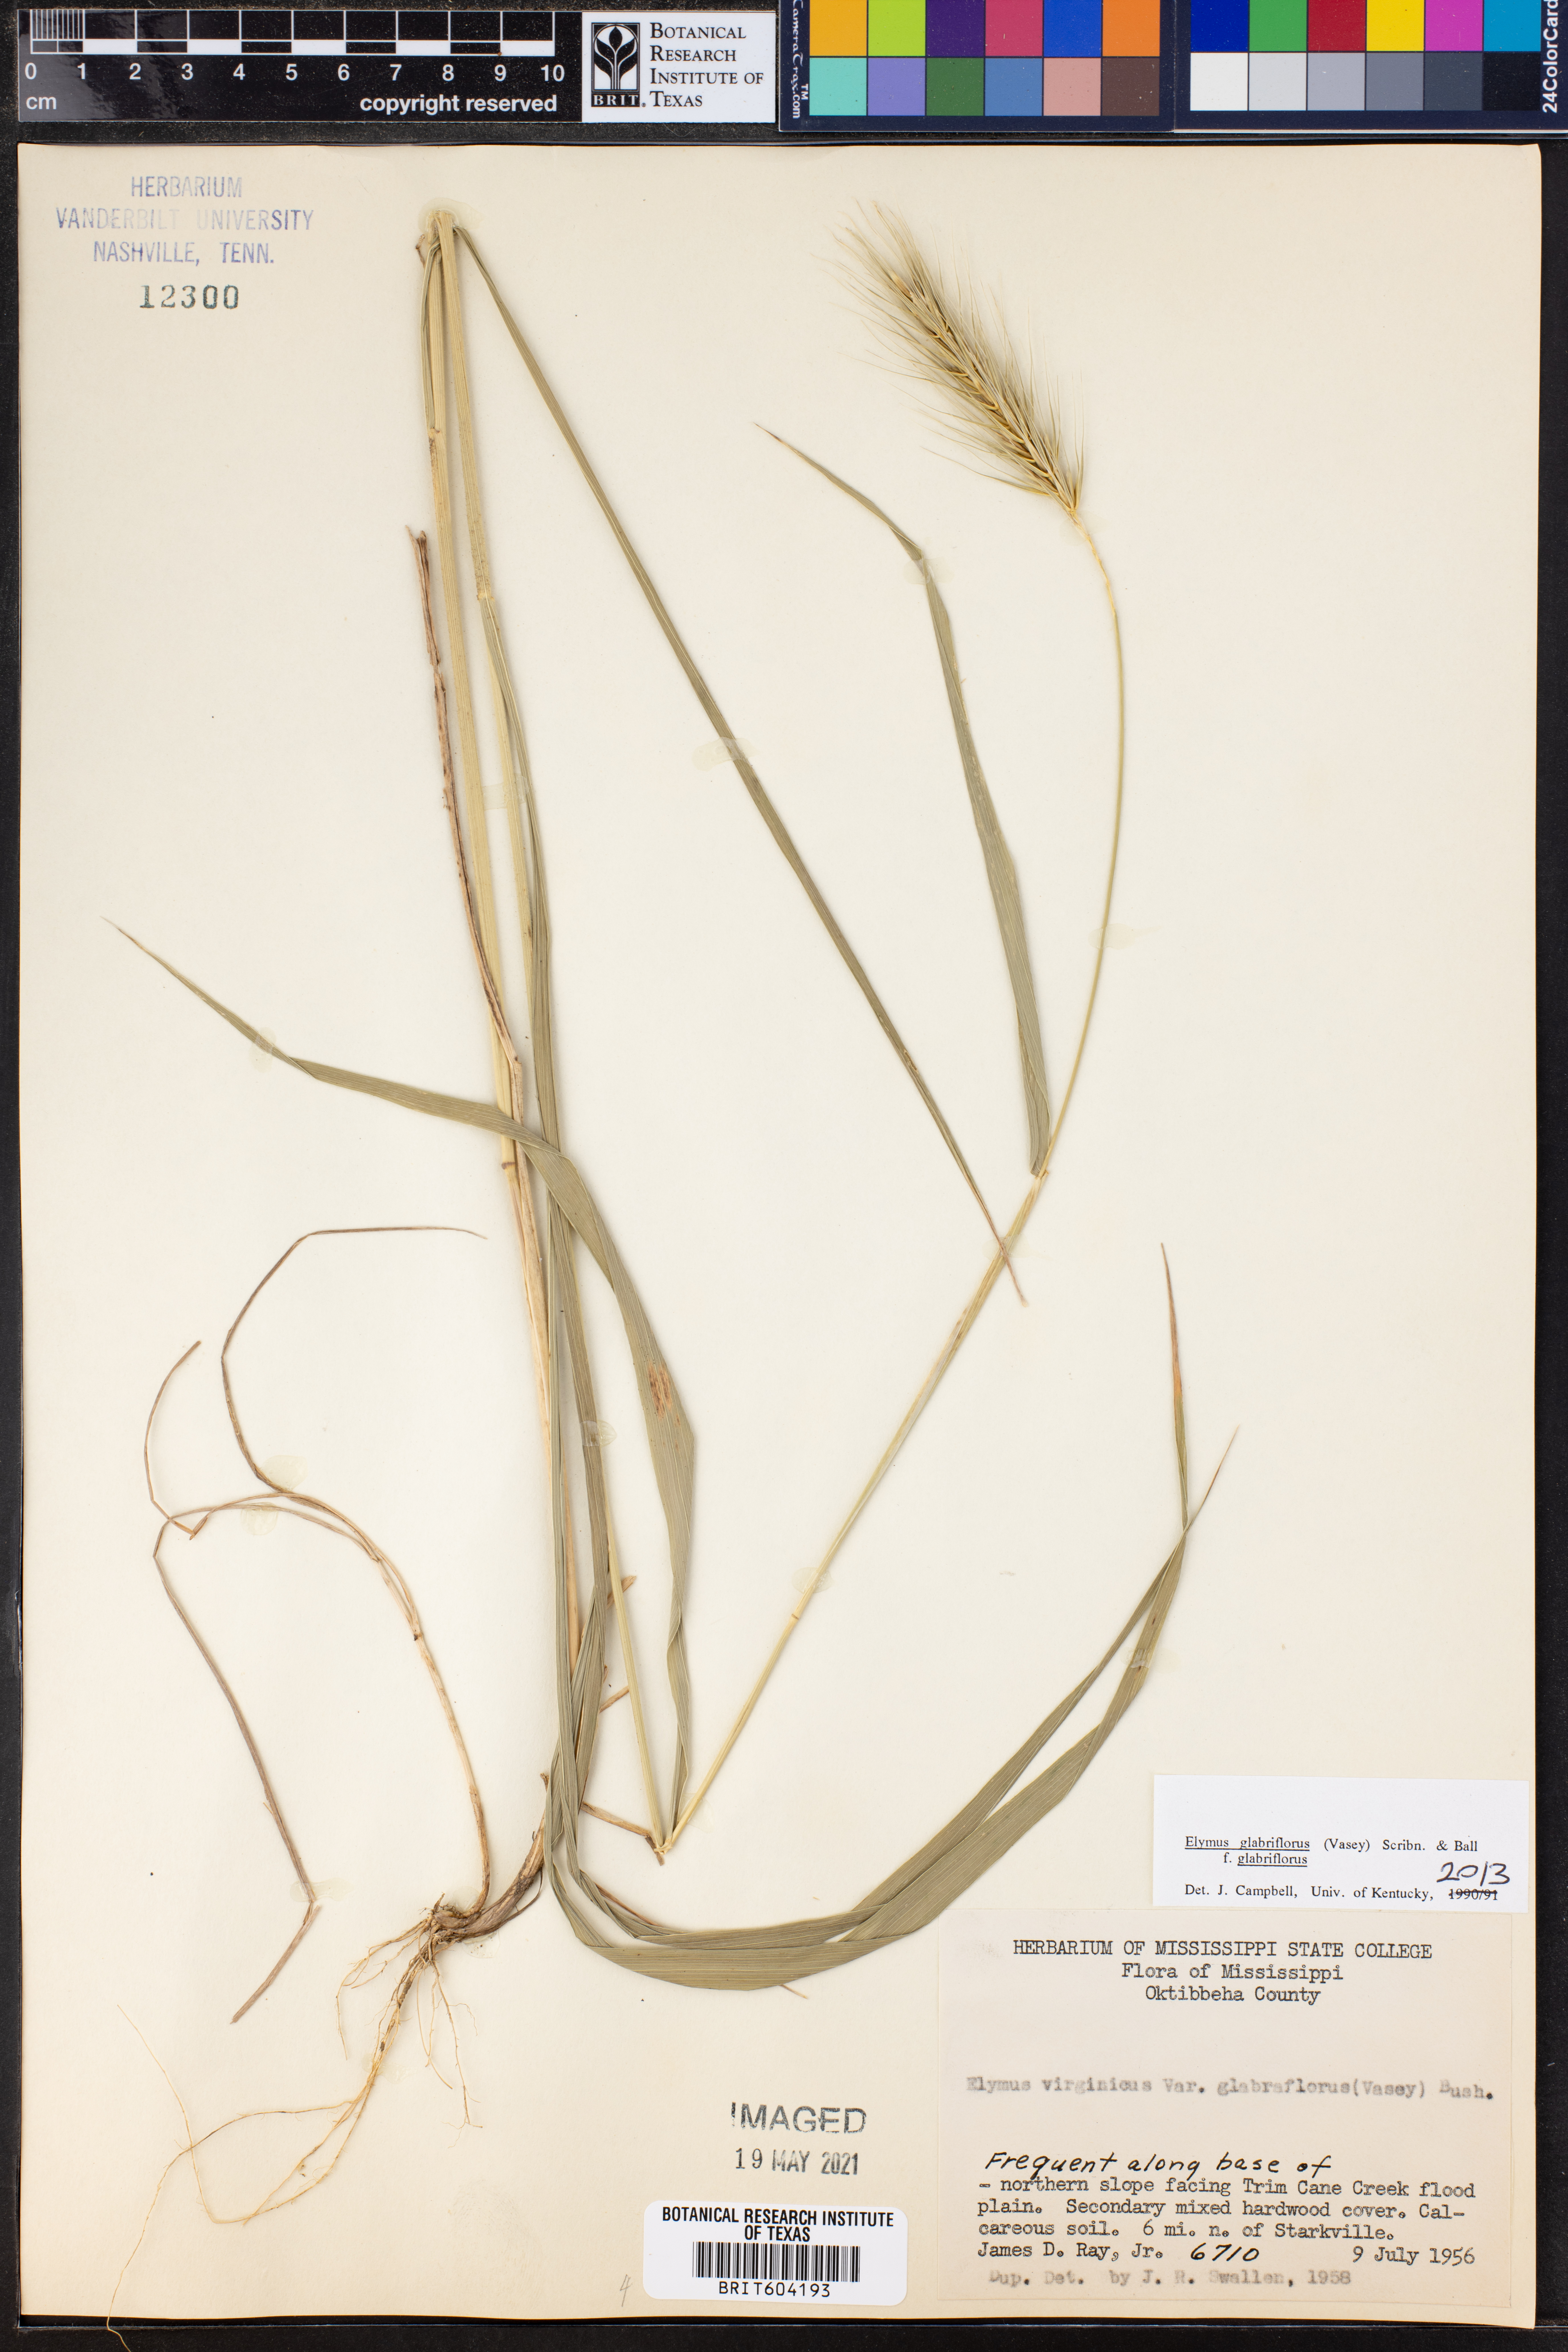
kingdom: Plantae
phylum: Tracheophyta
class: Liliopsida
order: Poales
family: Poaceae
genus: Elymus
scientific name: Elymus virginicus
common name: Common eastern wildrye
